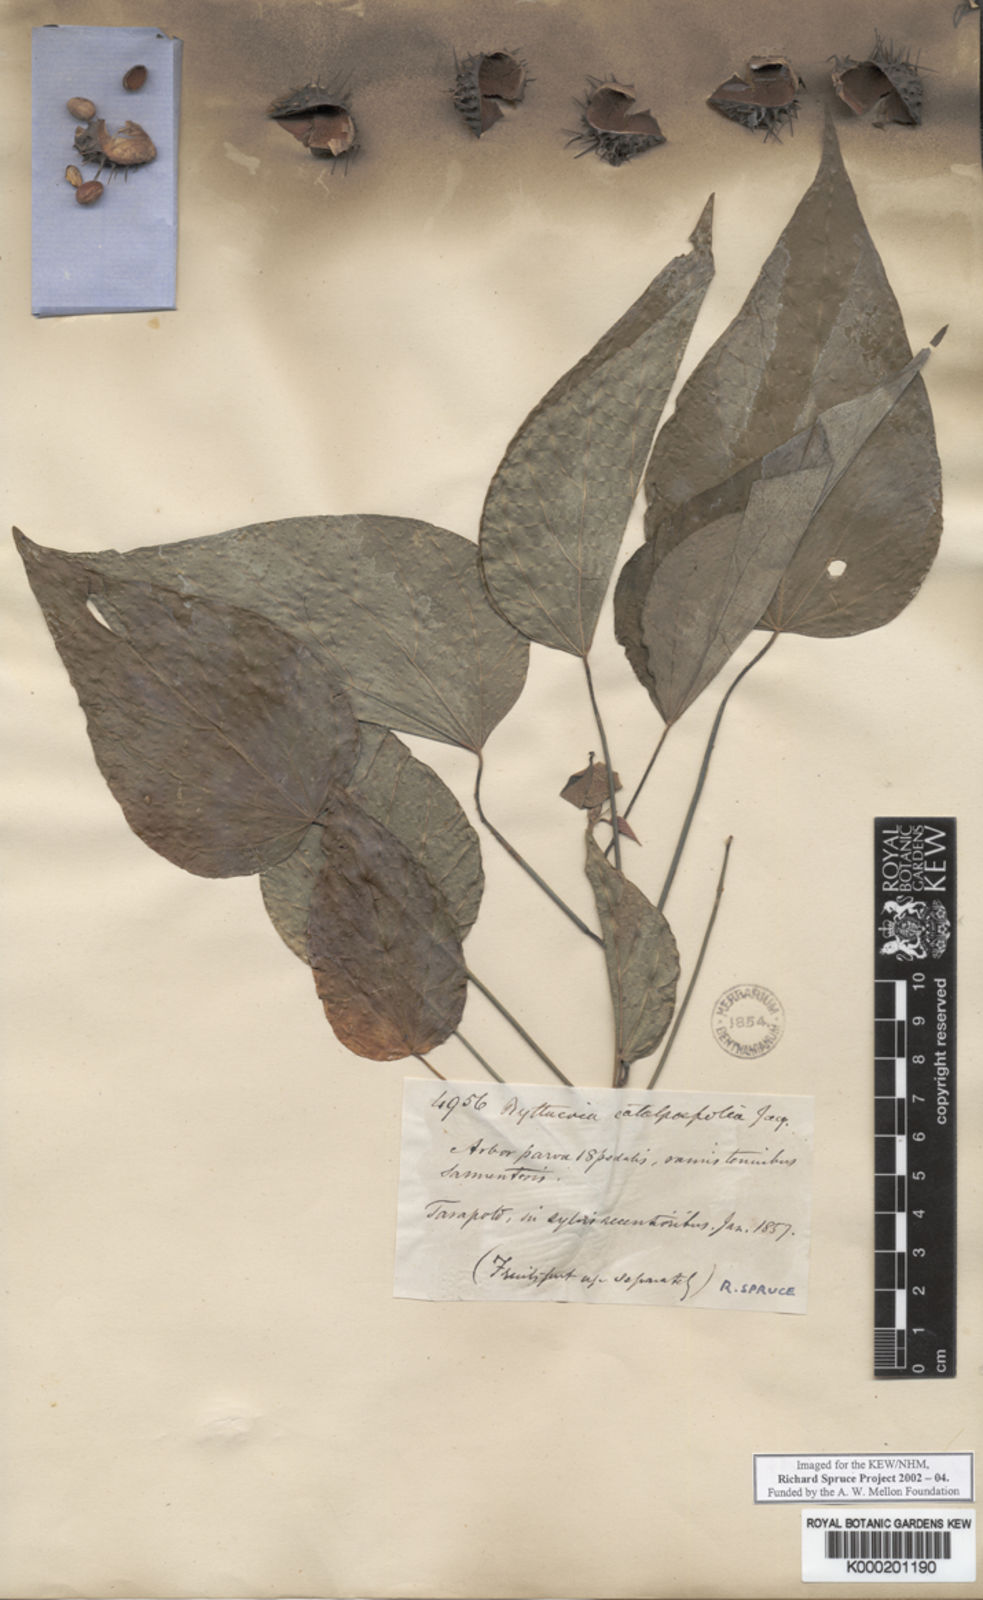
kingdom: Plantae
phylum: Tracheophyta
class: Magnoliopsida
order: Malvales
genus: Buettneria
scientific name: Buettneria
